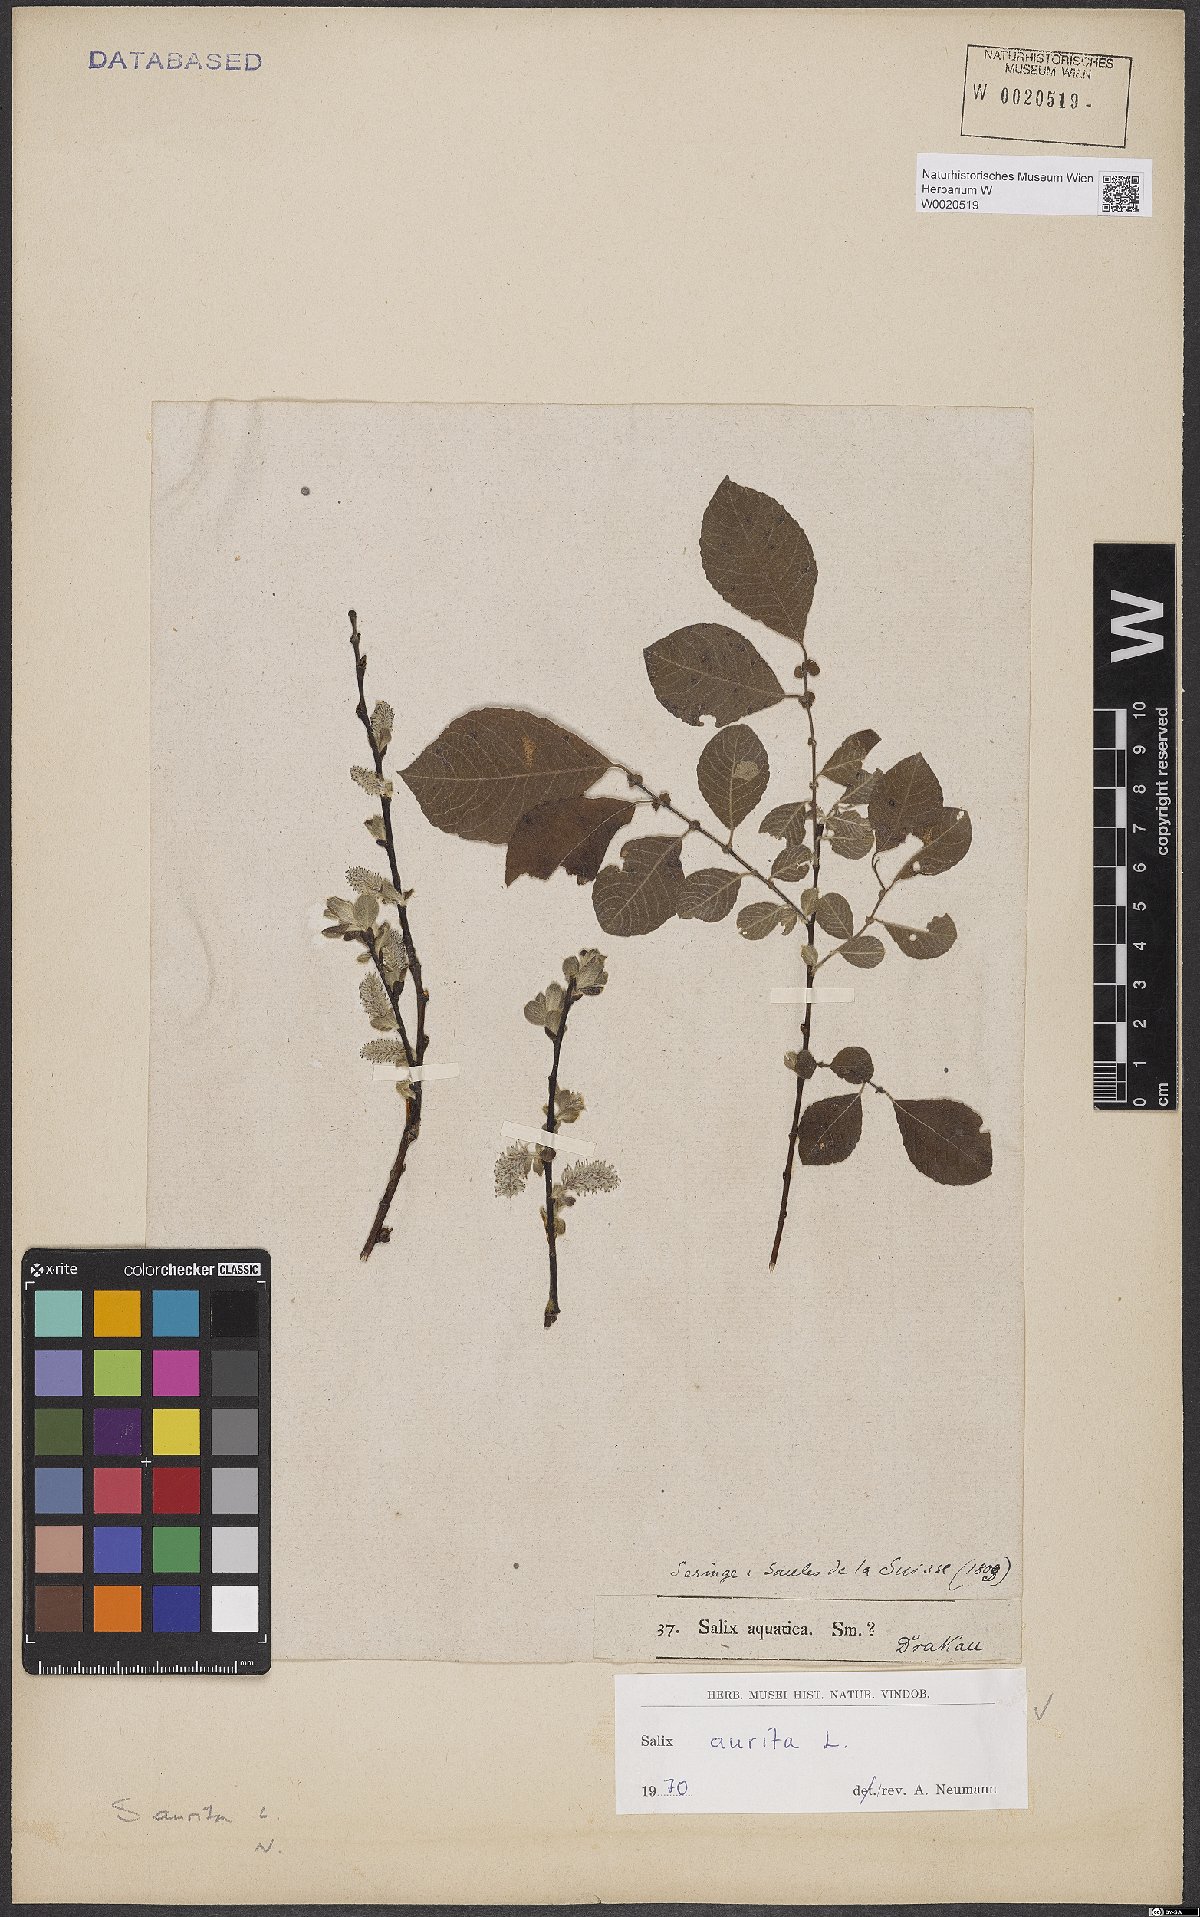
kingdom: Plantae
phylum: Tracheophyta
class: Magnoliopsida
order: Malpighiales
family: Salicaceae
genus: Salix
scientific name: Salix aurita
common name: Eared willow
